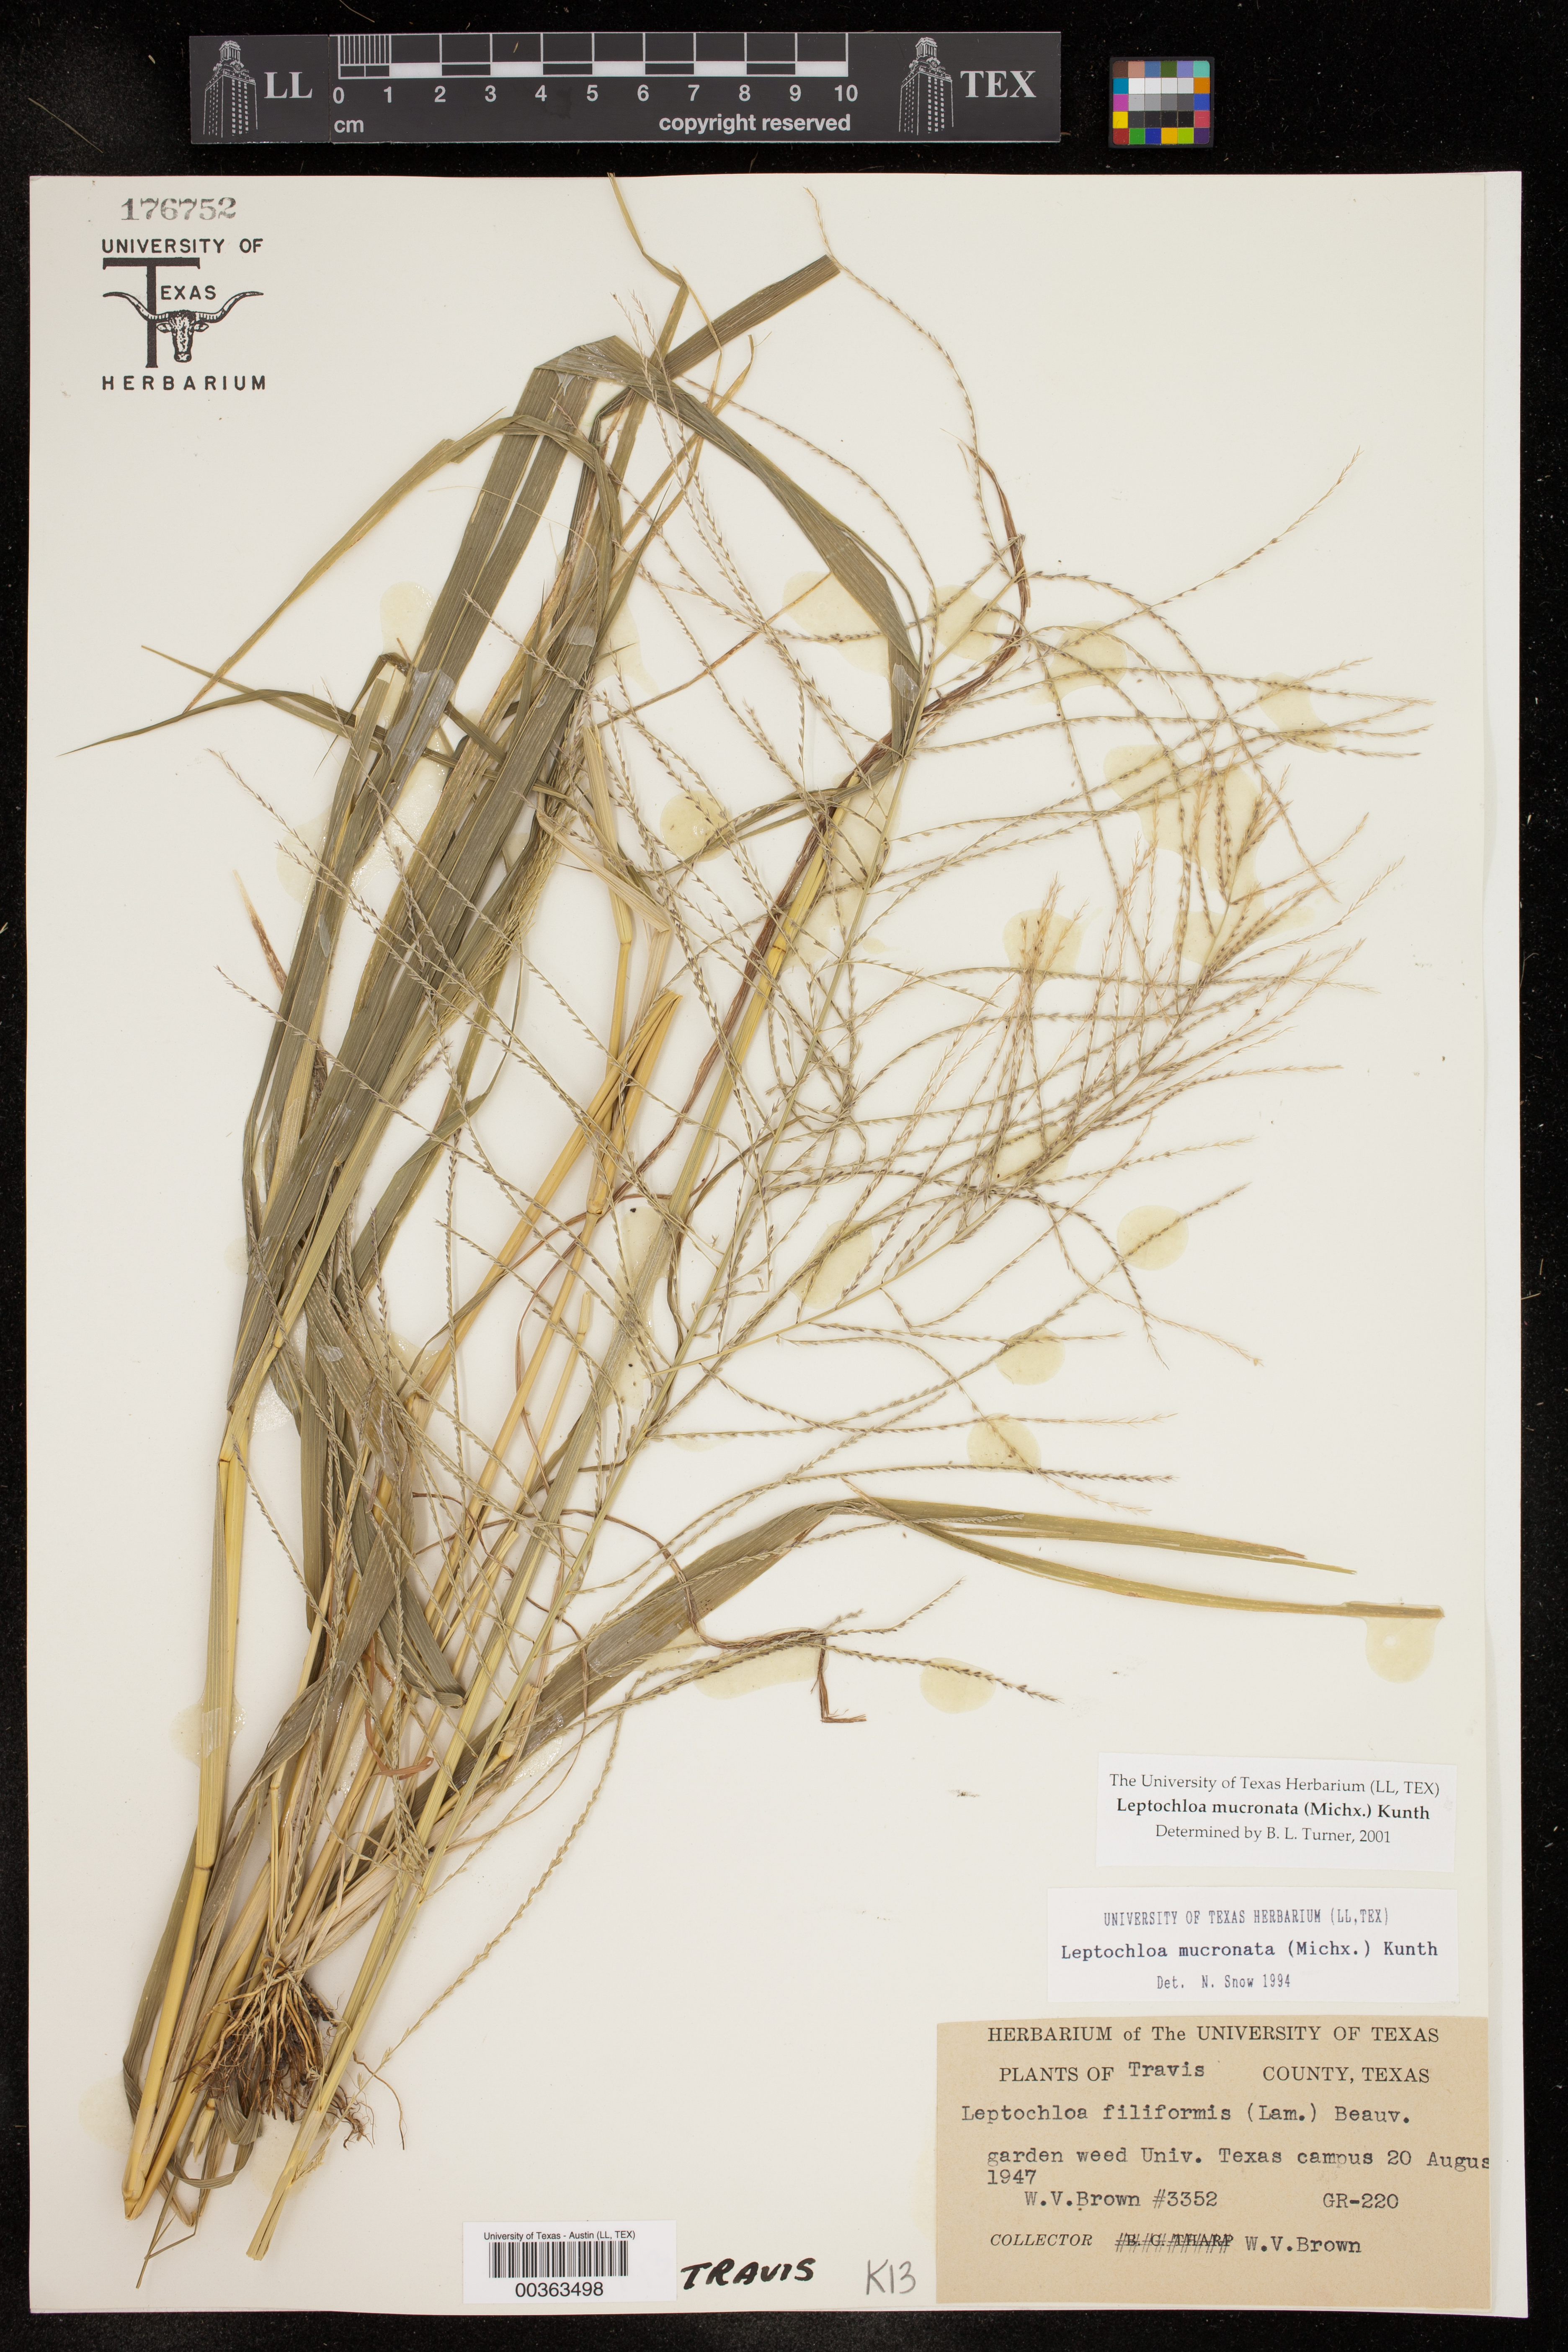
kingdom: Plantae
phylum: Tracheophyta
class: Liliopsida
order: Poales
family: Poaceae
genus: Leptochloa
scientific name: Leptochloa mucronata
